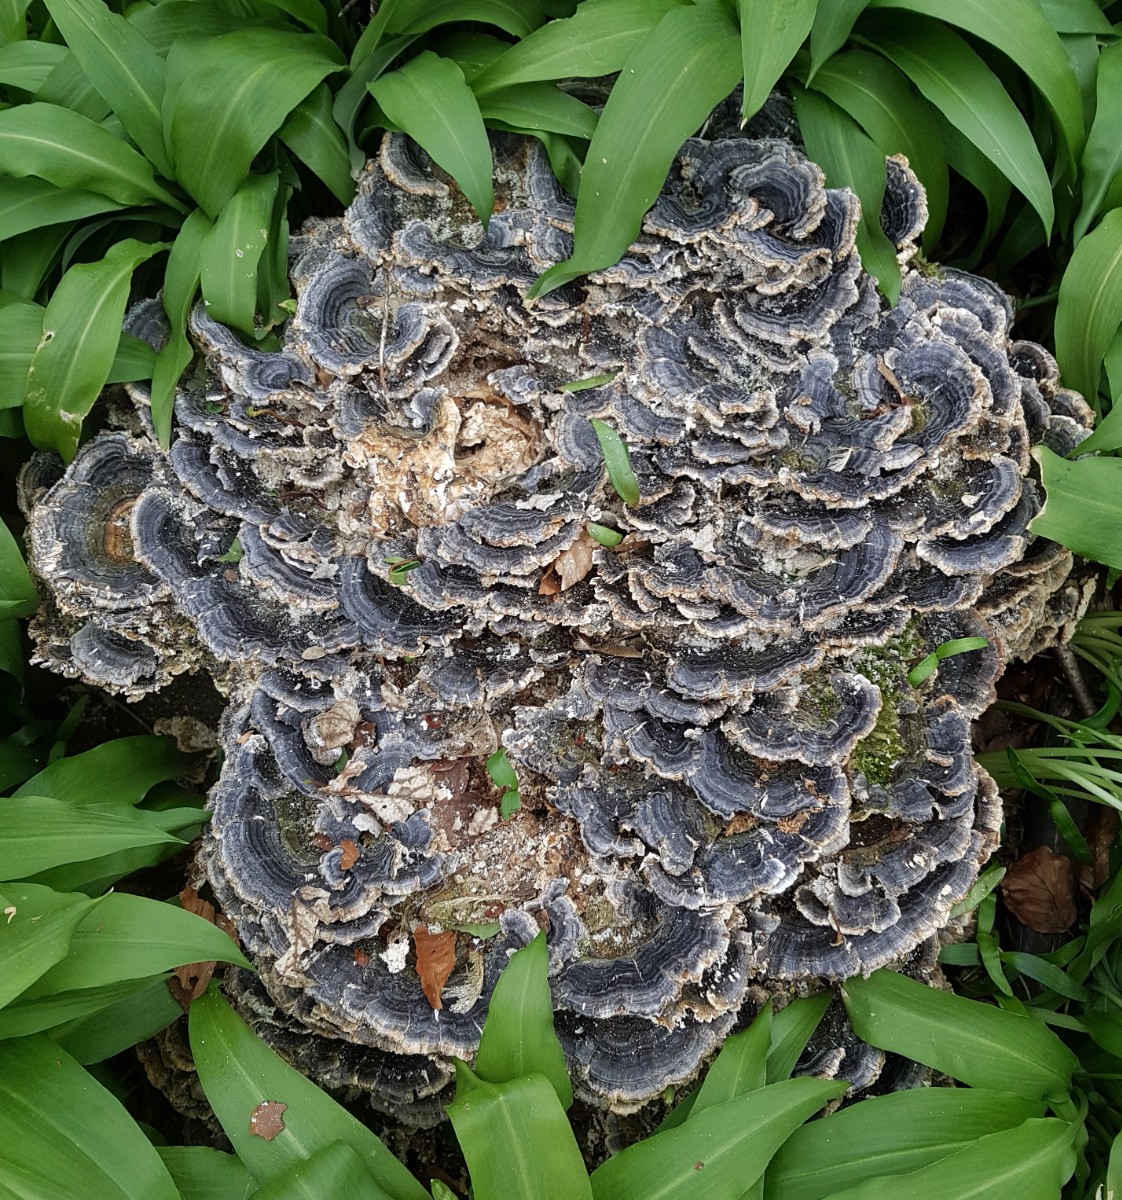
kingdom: Fungi
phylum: Basidiomycota
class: Agaricomycetes
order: Polyporales
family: Polyporaceae
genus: Trametes
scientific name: Trametes versicolor
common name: broget læderporesvamp
